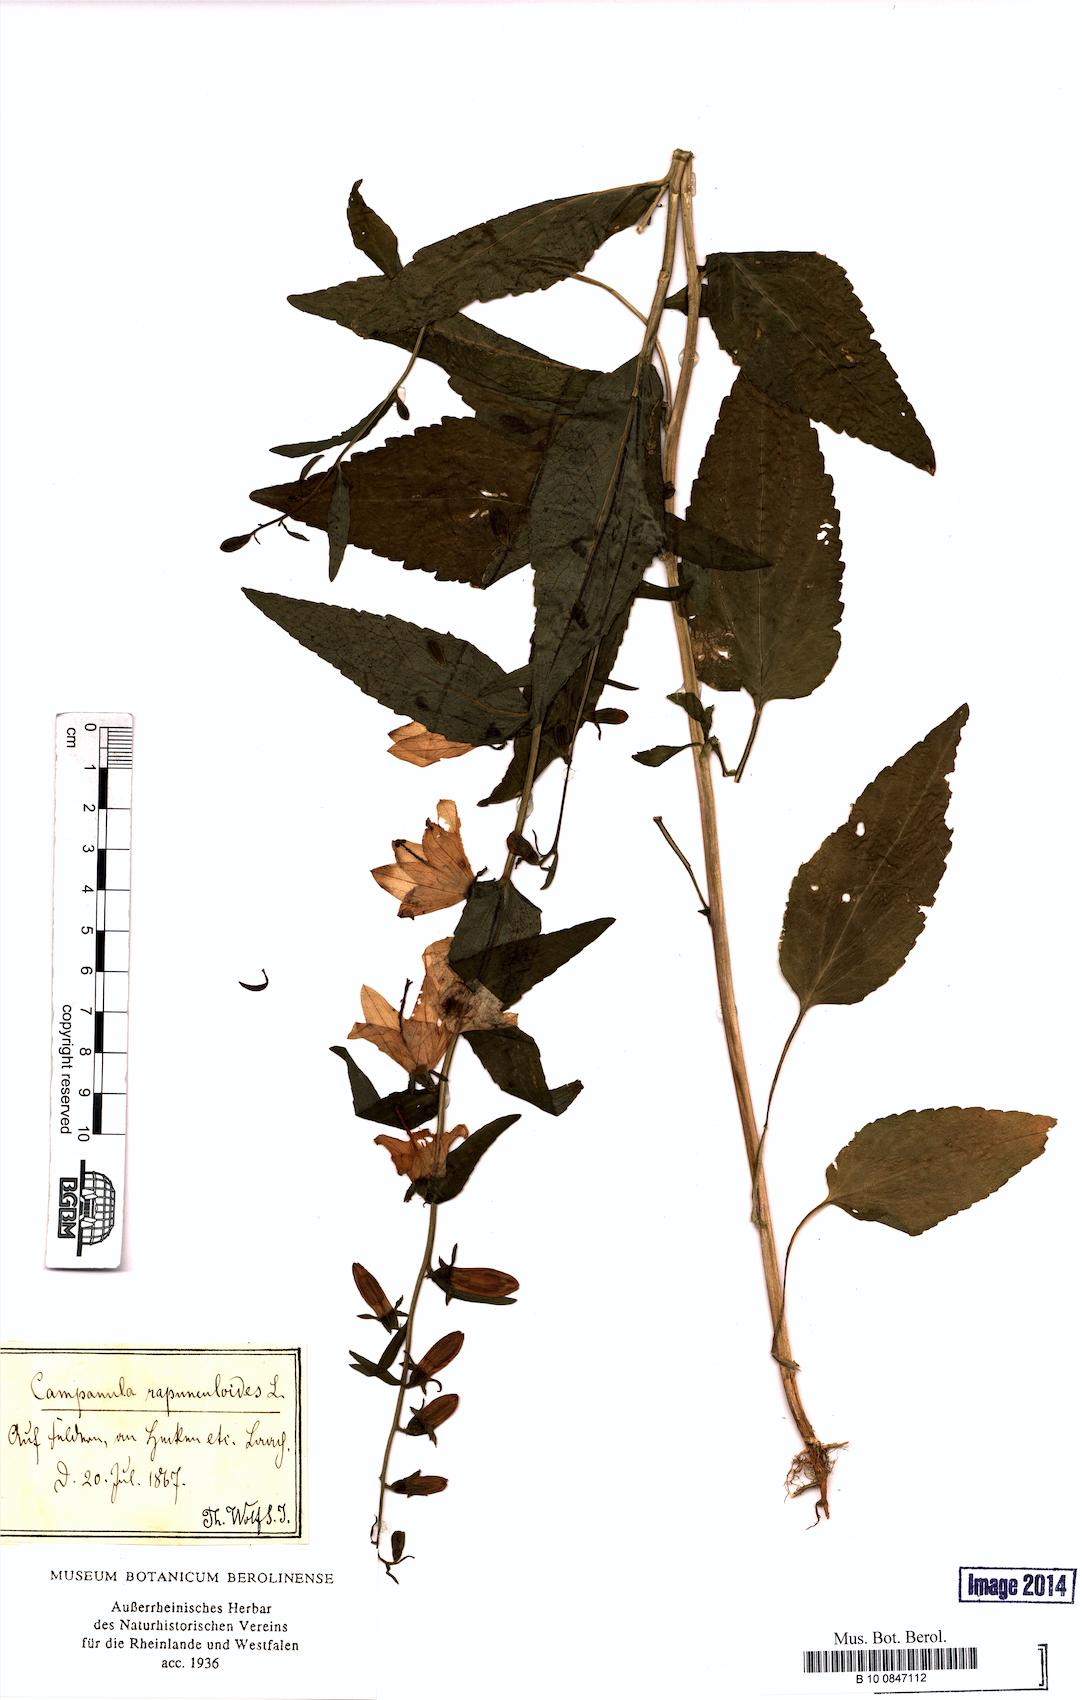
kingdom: Plantae
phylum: Tracheophyta
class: Magnoliopsida
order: Asterales
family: Campanulaceae
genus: Campanula
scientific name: Campanula rapunculoides
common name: Creeping bellflower
